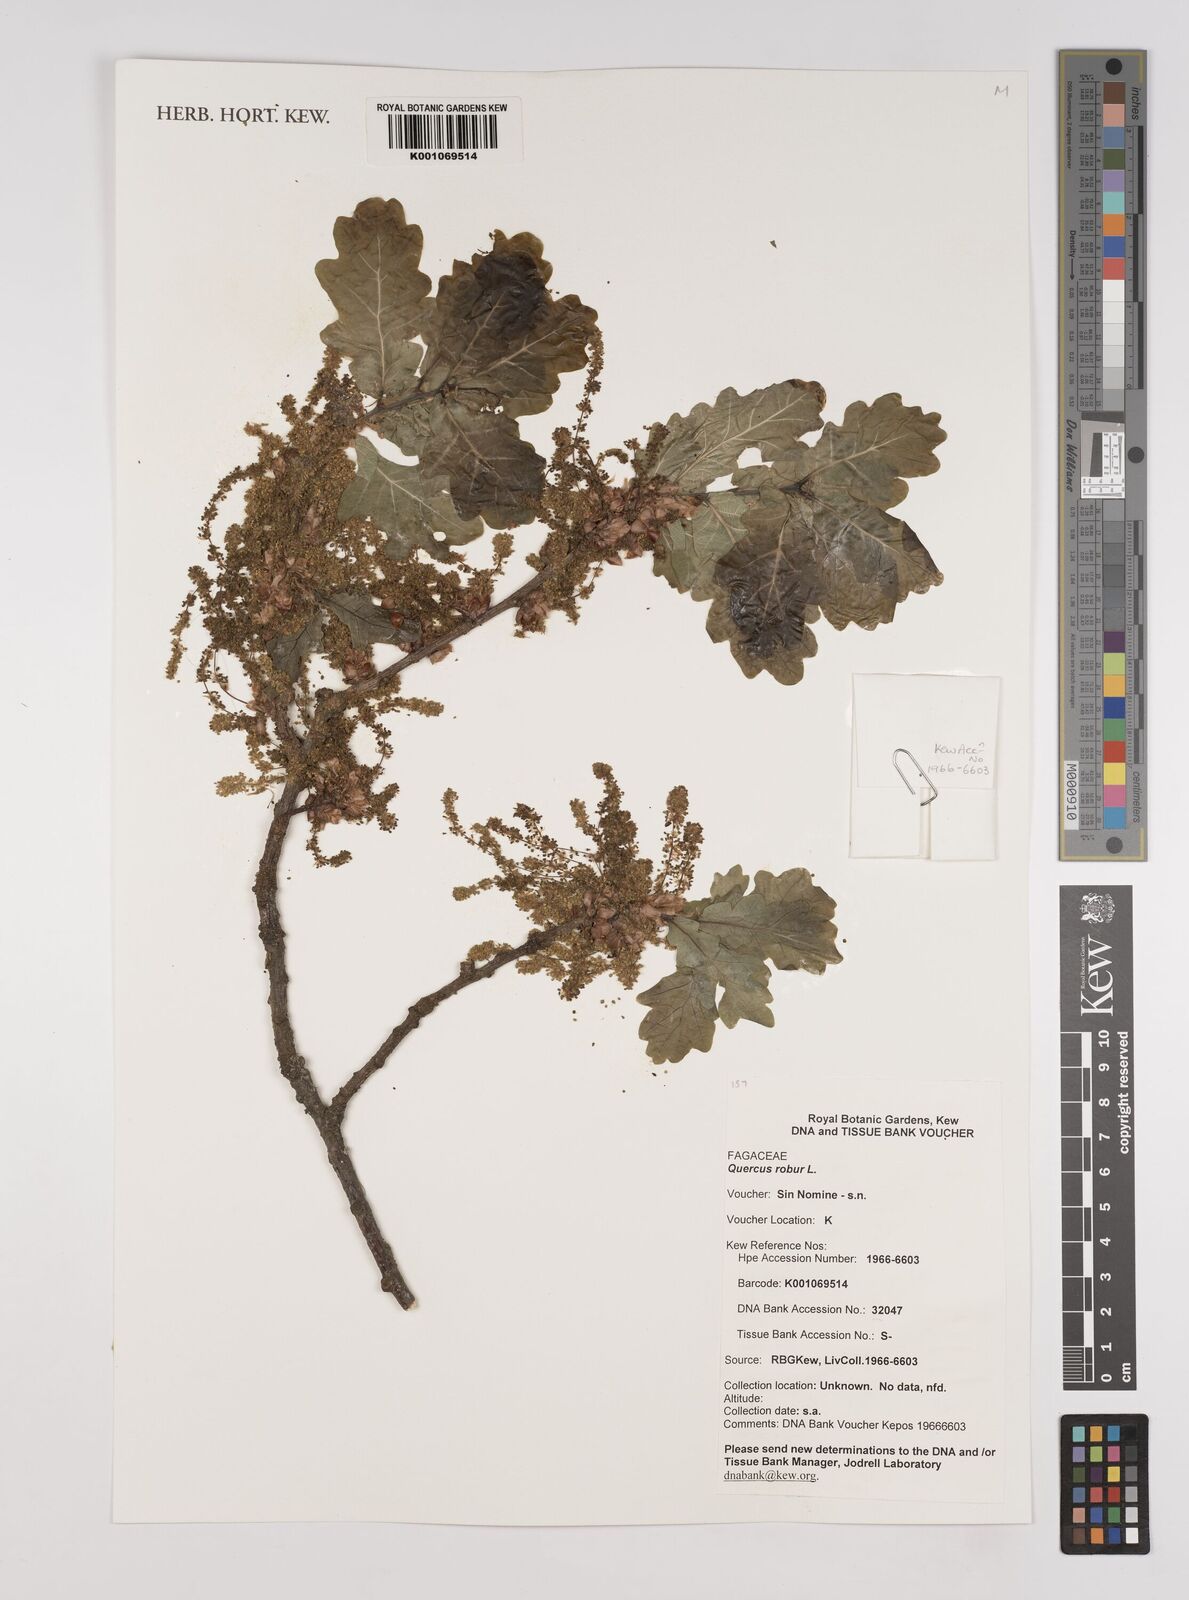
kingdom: Plantae
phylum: Tracheophyta
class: Magnoliopsida
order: Fagales
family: Fagaceae
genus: Quercus
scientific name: Quercus robur
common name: Pedunculate oak
